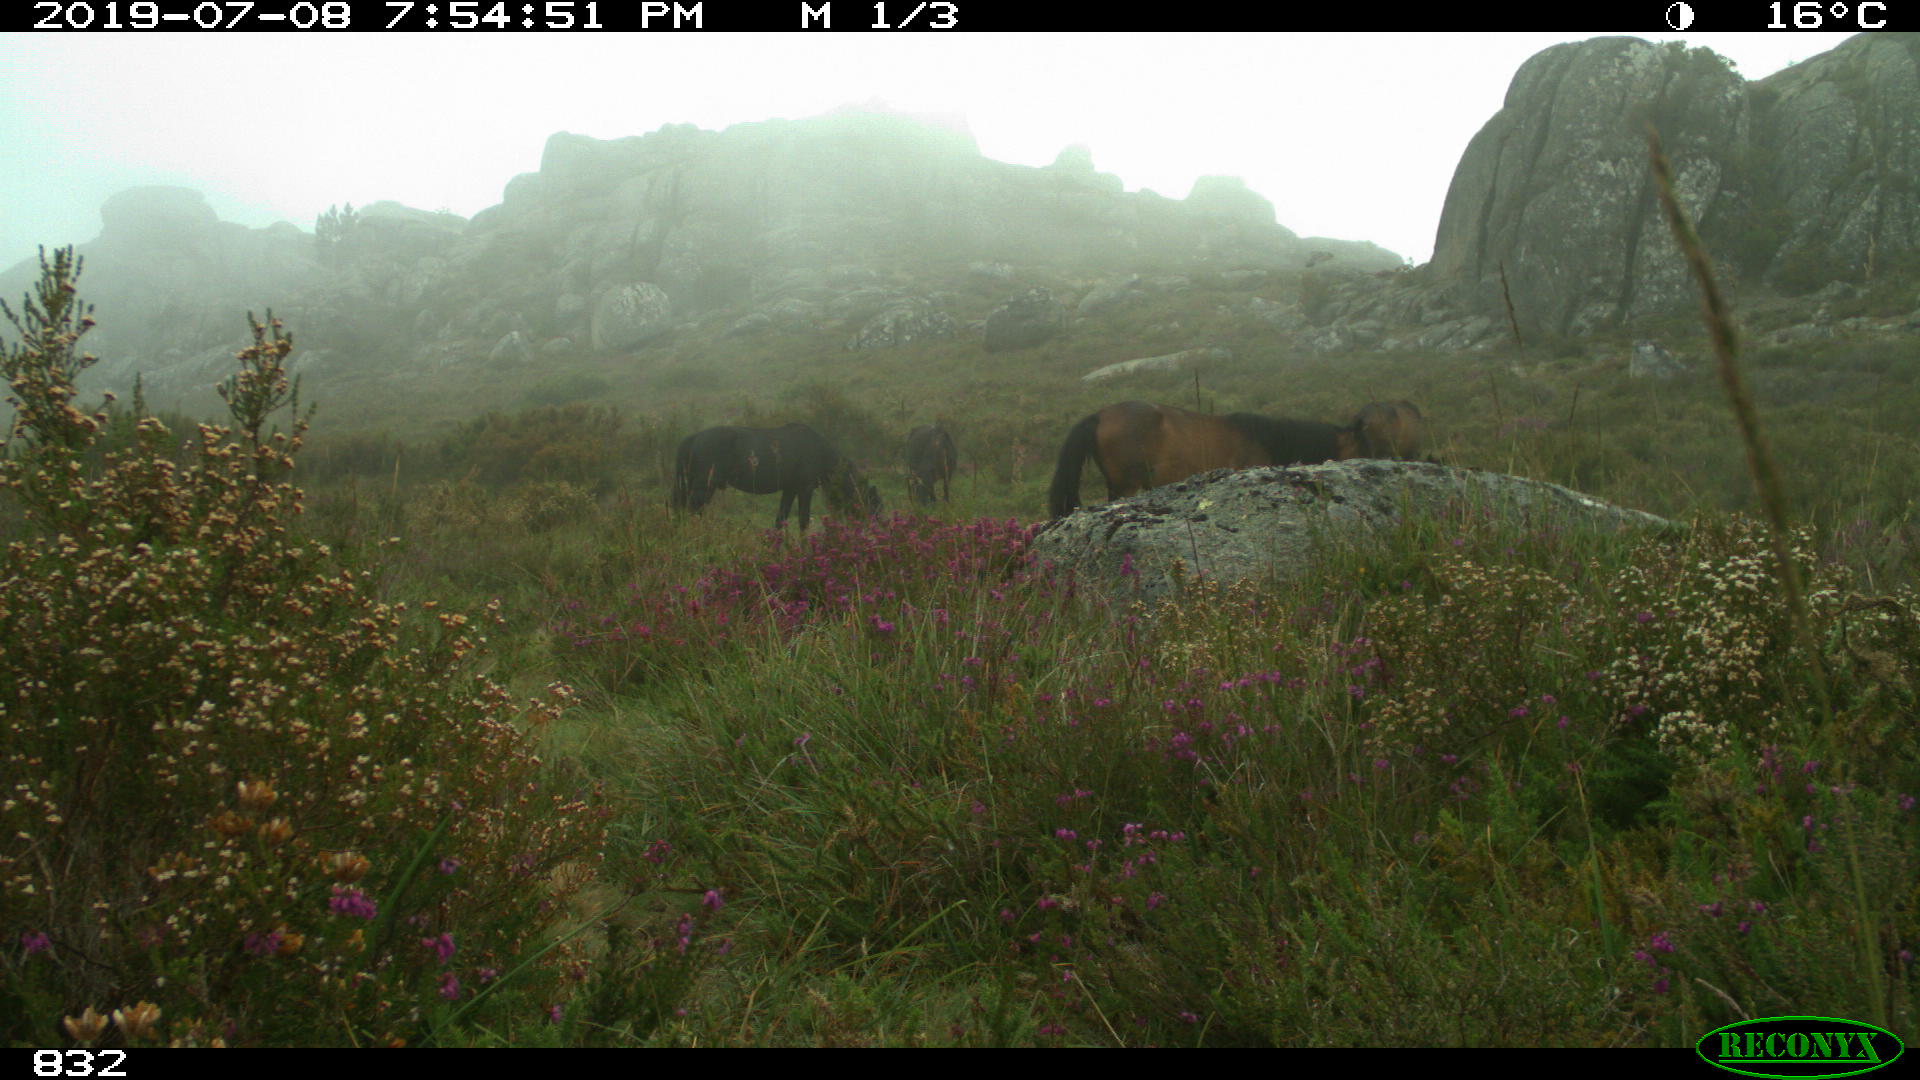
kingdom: Animalia
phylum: Chordata
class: Mammalia
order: Perissodactyla
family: Equidae
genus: Equus
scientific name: Equus caballus
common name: Horse
